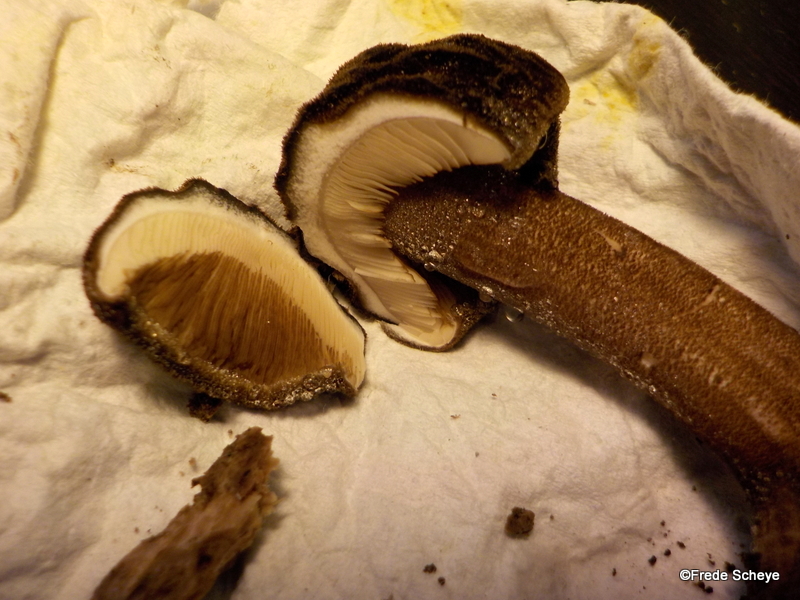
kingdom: Fungi
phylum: Basidiomycota
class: Agaricomycetes
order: Agaricales
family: Pluteaceae
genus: Pluteus
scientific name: Pluteus umbrosus
